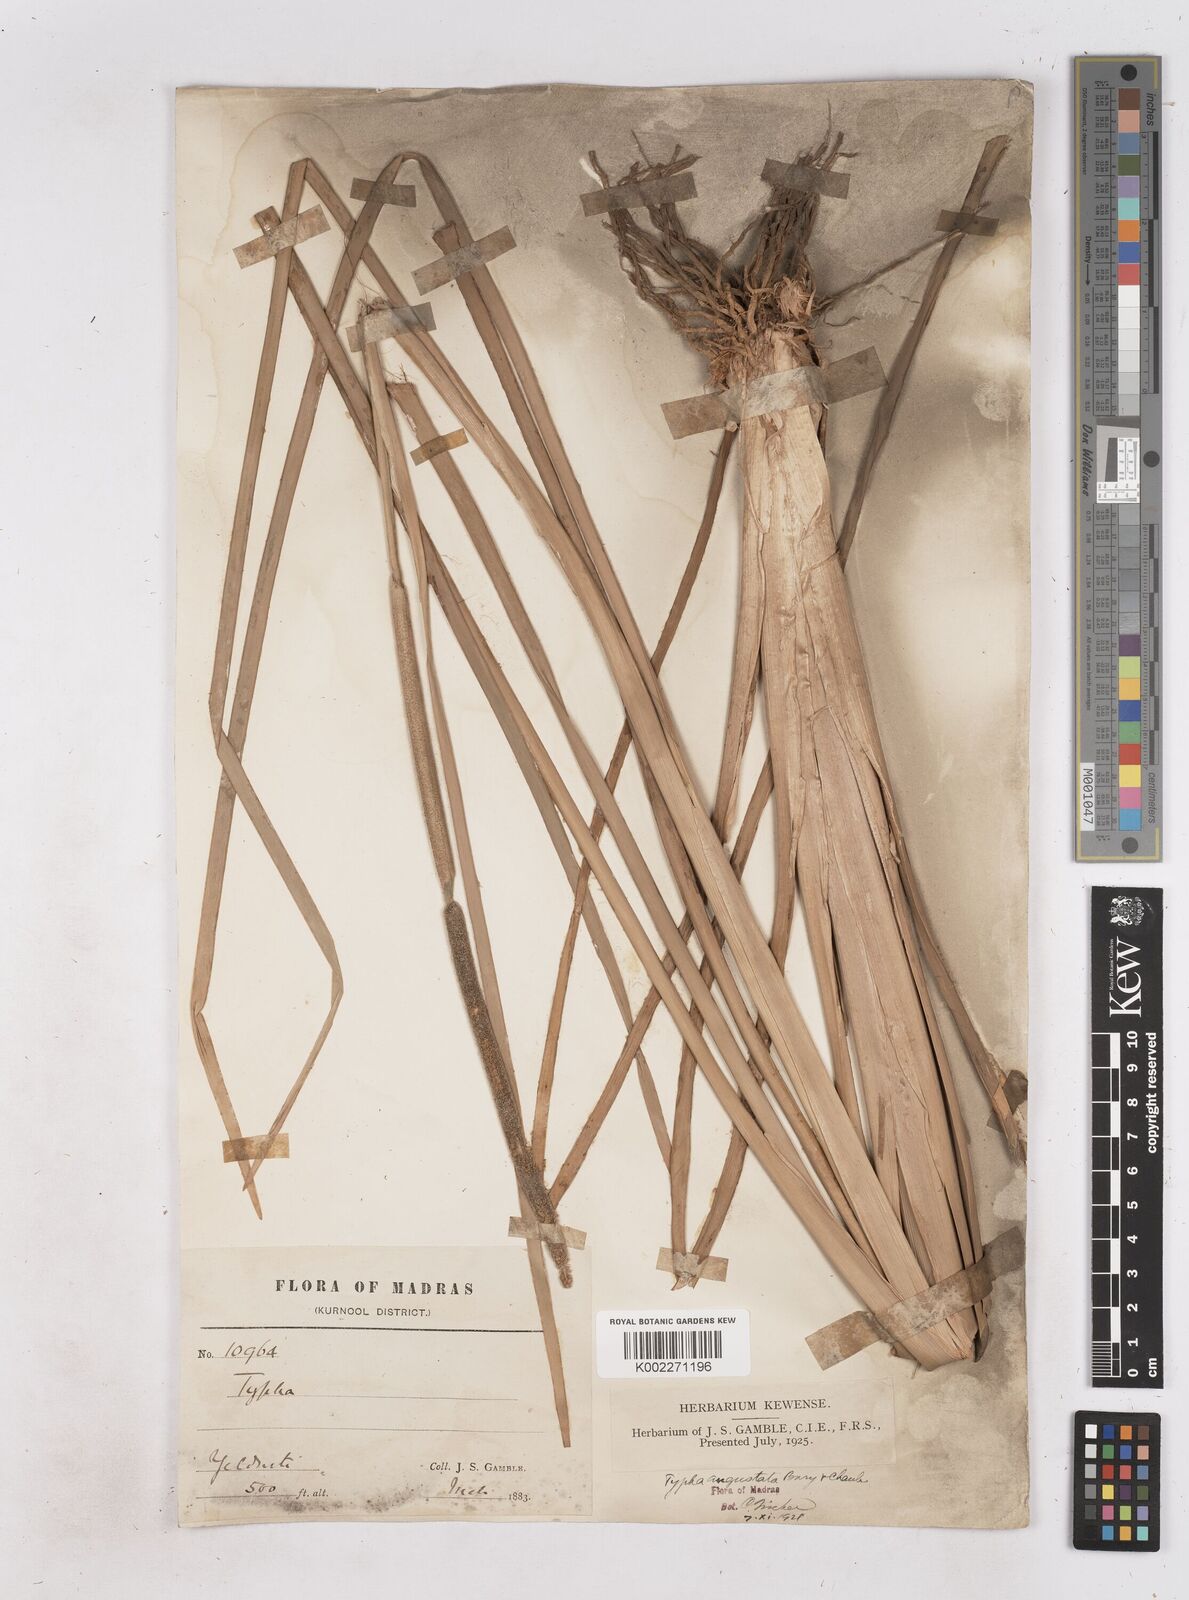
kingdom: Plantae
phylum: Tracheophyta
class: Liliopsida
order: Poales
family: Typhaceae
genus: Typha
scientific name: Typha domingensis
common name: Southern cattail
